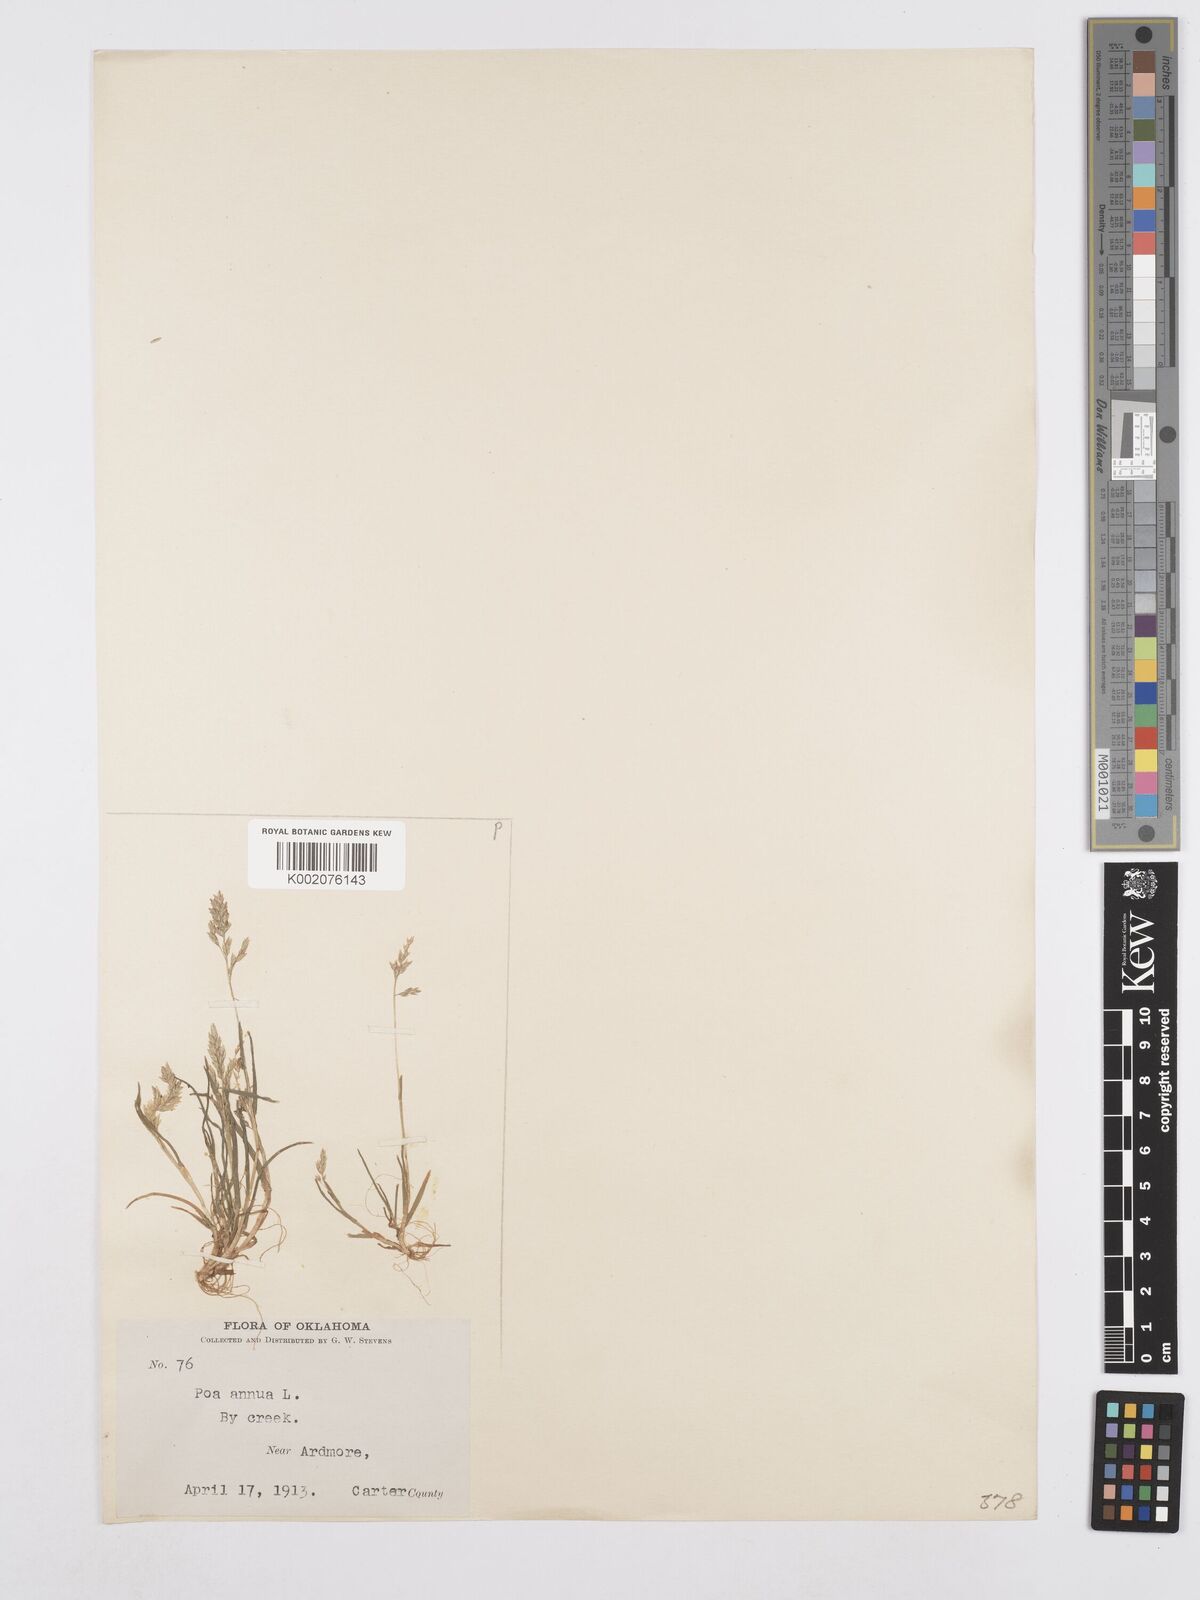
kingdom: Plantae
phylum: Tracheophyta
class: Liliopsida
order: Poales
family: Poaceae
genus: Poa
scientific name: Poa annua
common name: Annual bluegrass
